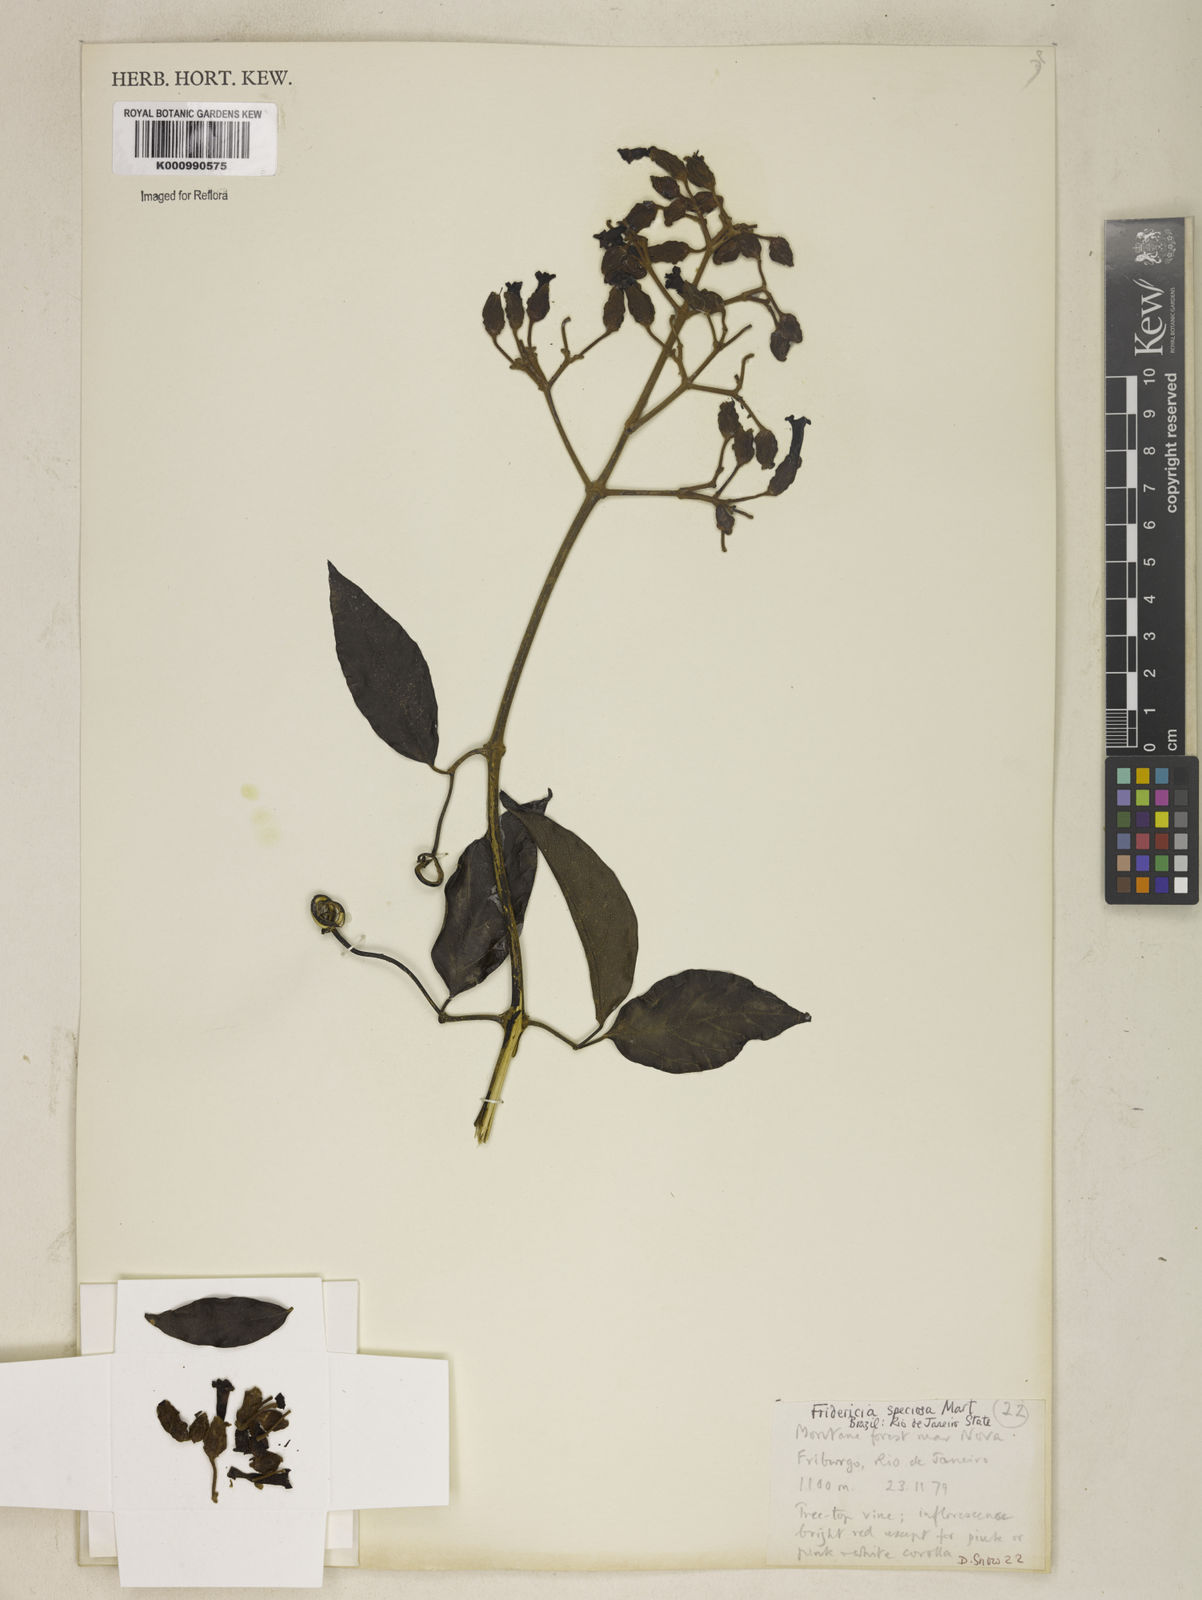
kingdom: Plantae
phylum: Tracheophyta
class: Magnoliopsida
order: Lamiales
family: Bignoniaceae
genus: Fridericia
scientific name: Fridericia speciosa
